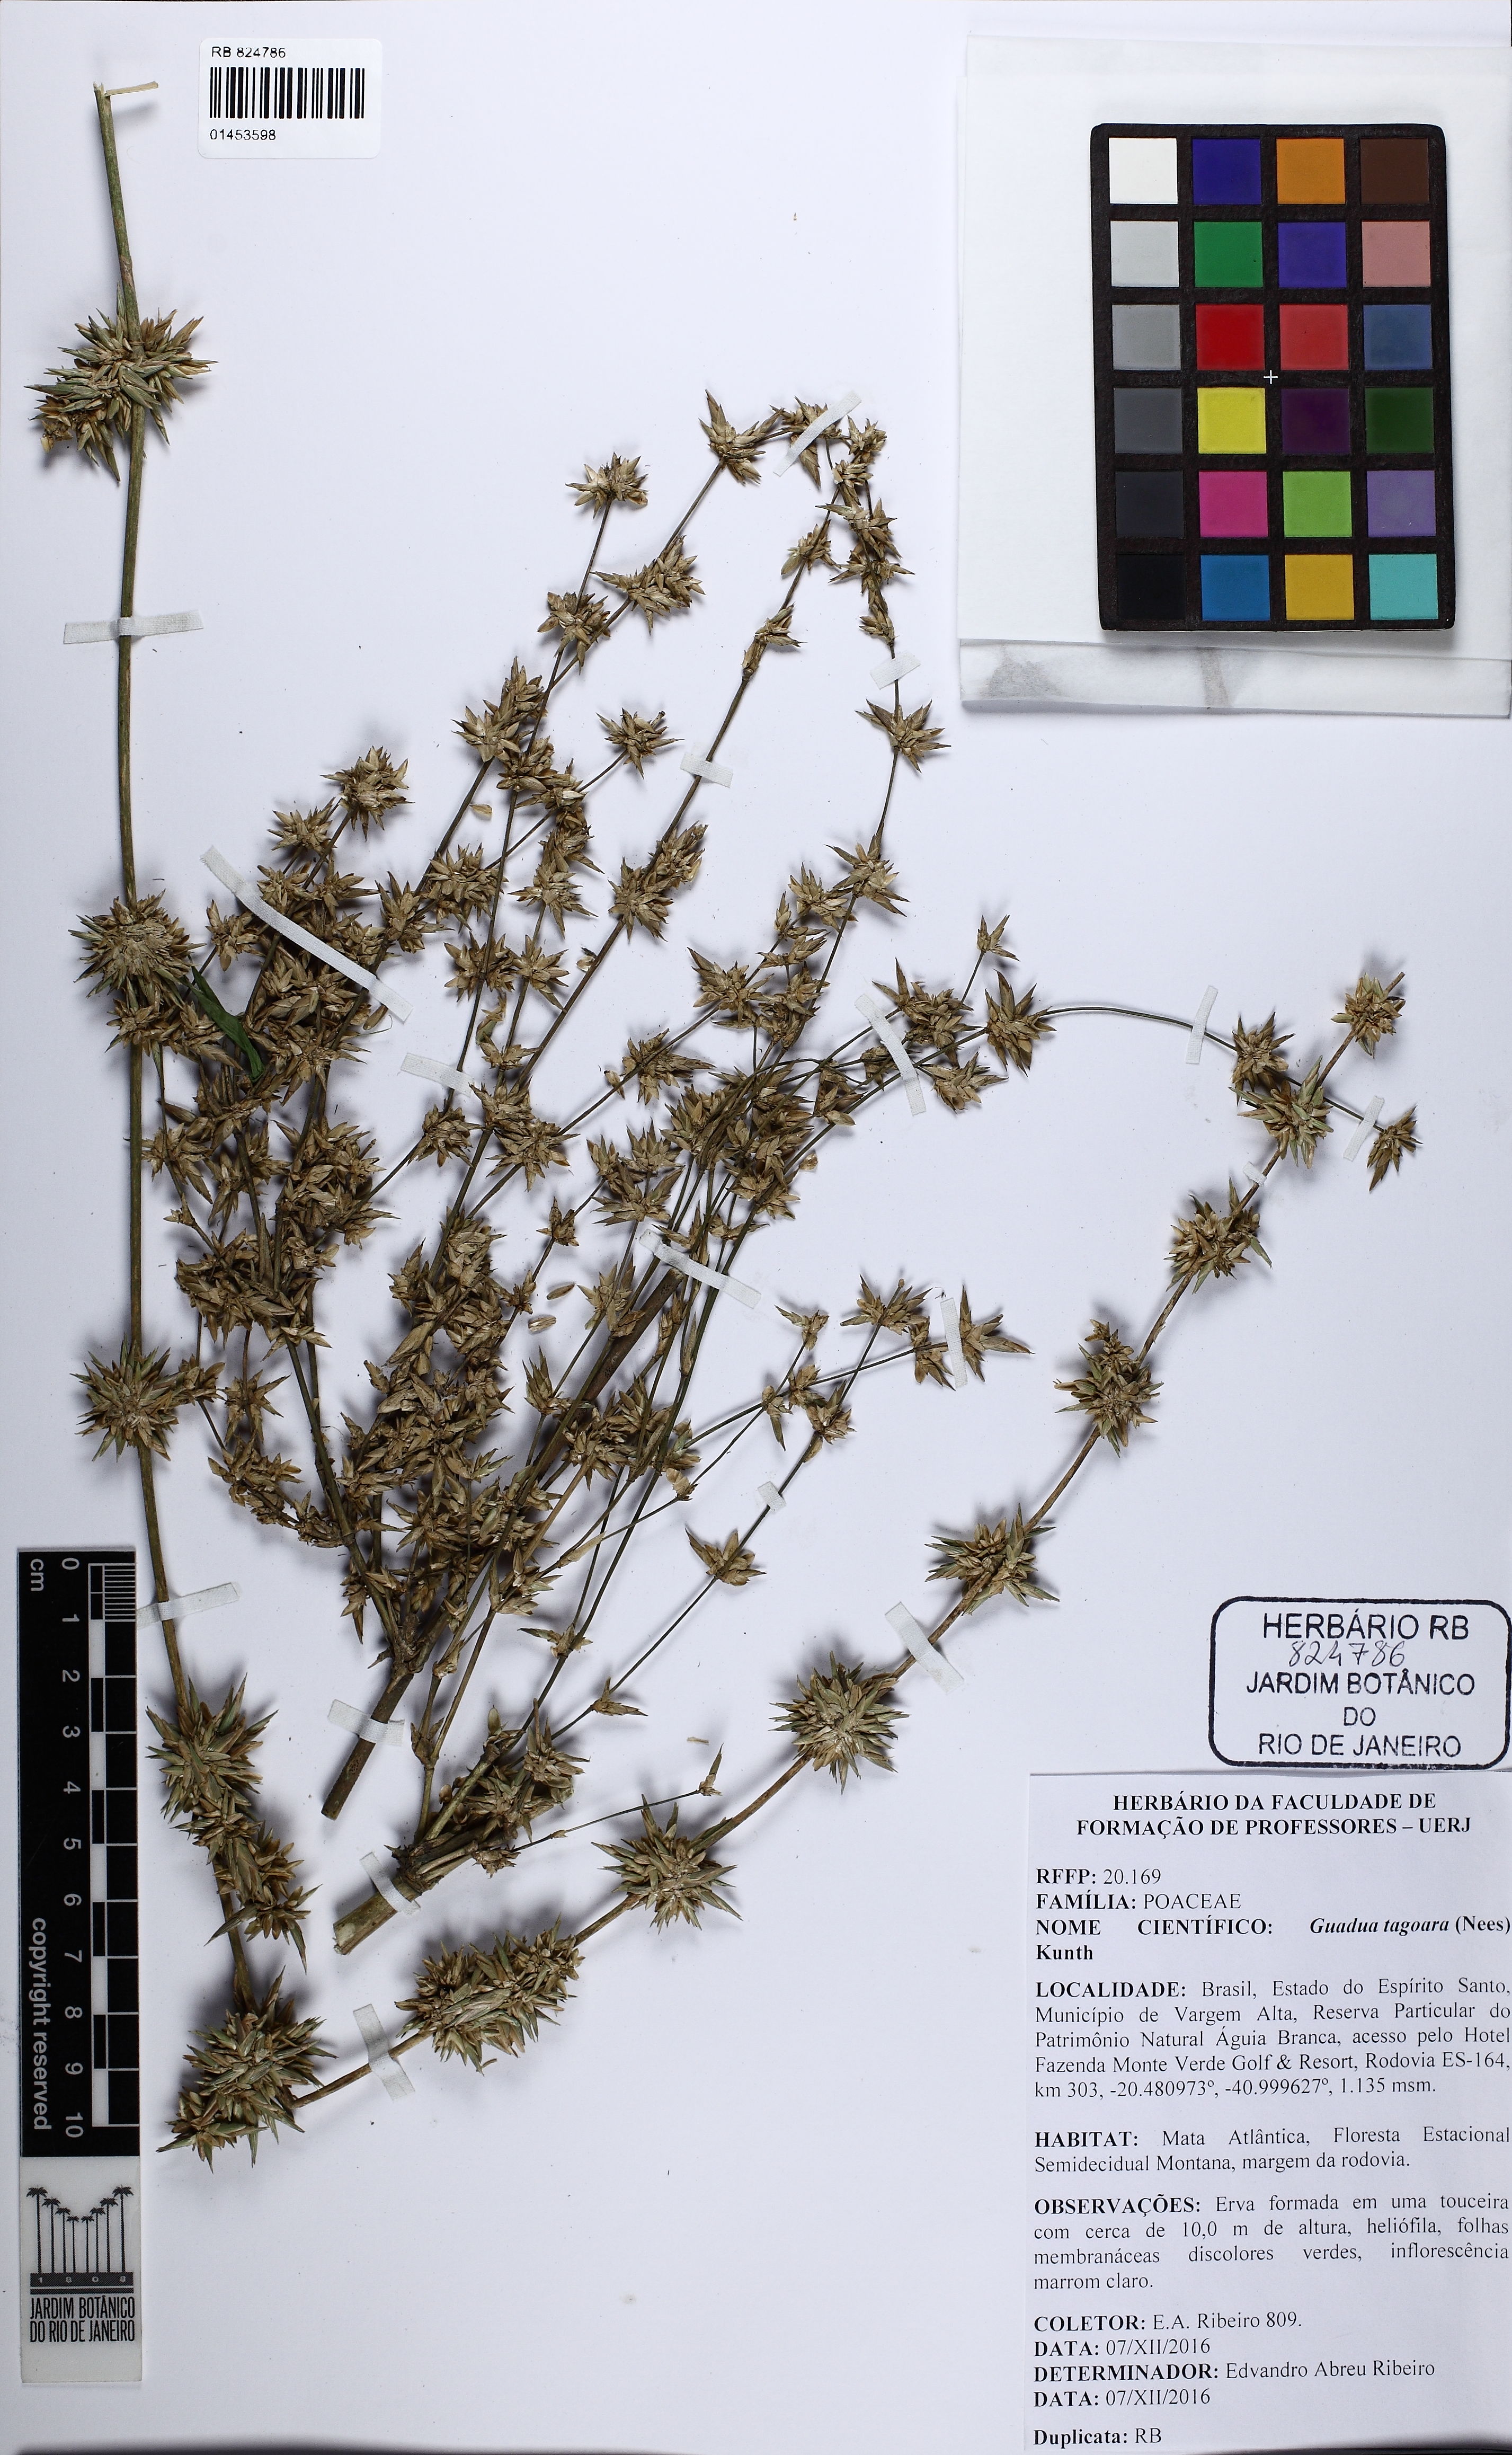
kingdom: Plantae
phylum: Tracheophyta
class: Liliopsida
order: Poales
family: Poaceae
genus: Guadua
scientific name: Guadua tagoara
